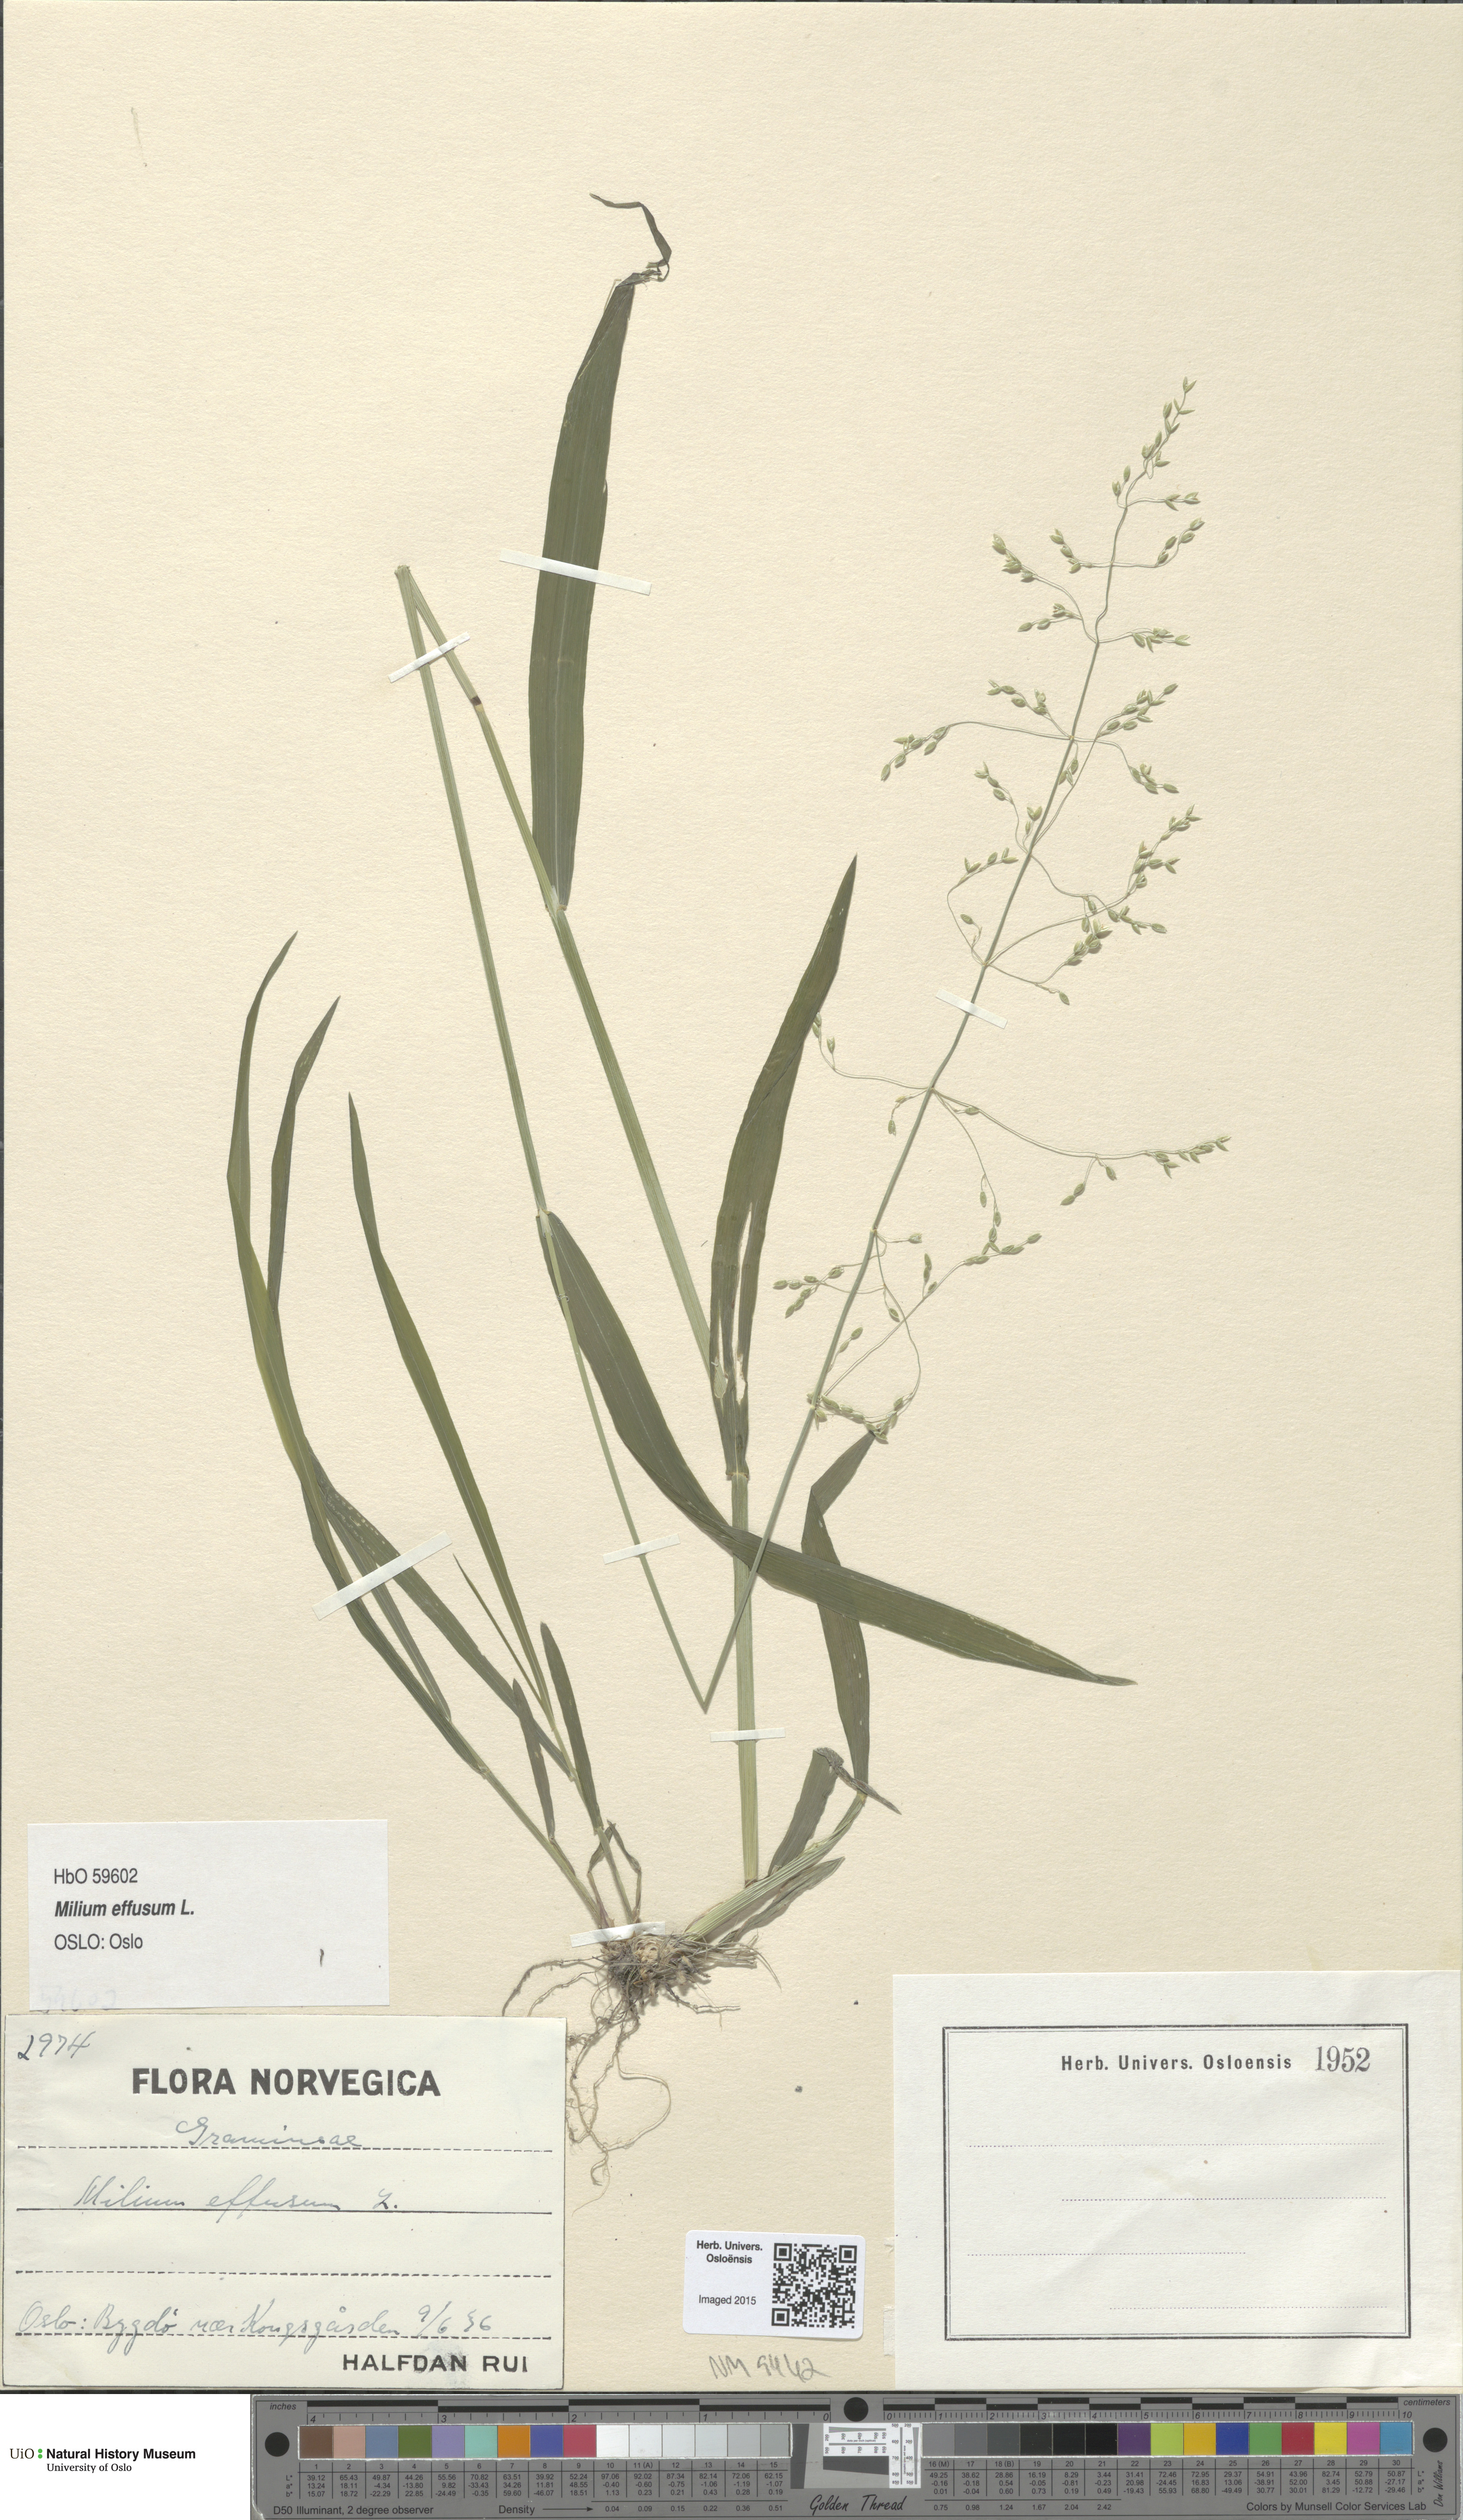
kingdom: Plantae
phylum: Tracheophyta
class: Liliopsida
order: Poales
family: Poaceae
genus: Milium
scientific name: Milium effusum
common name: Wood millet
